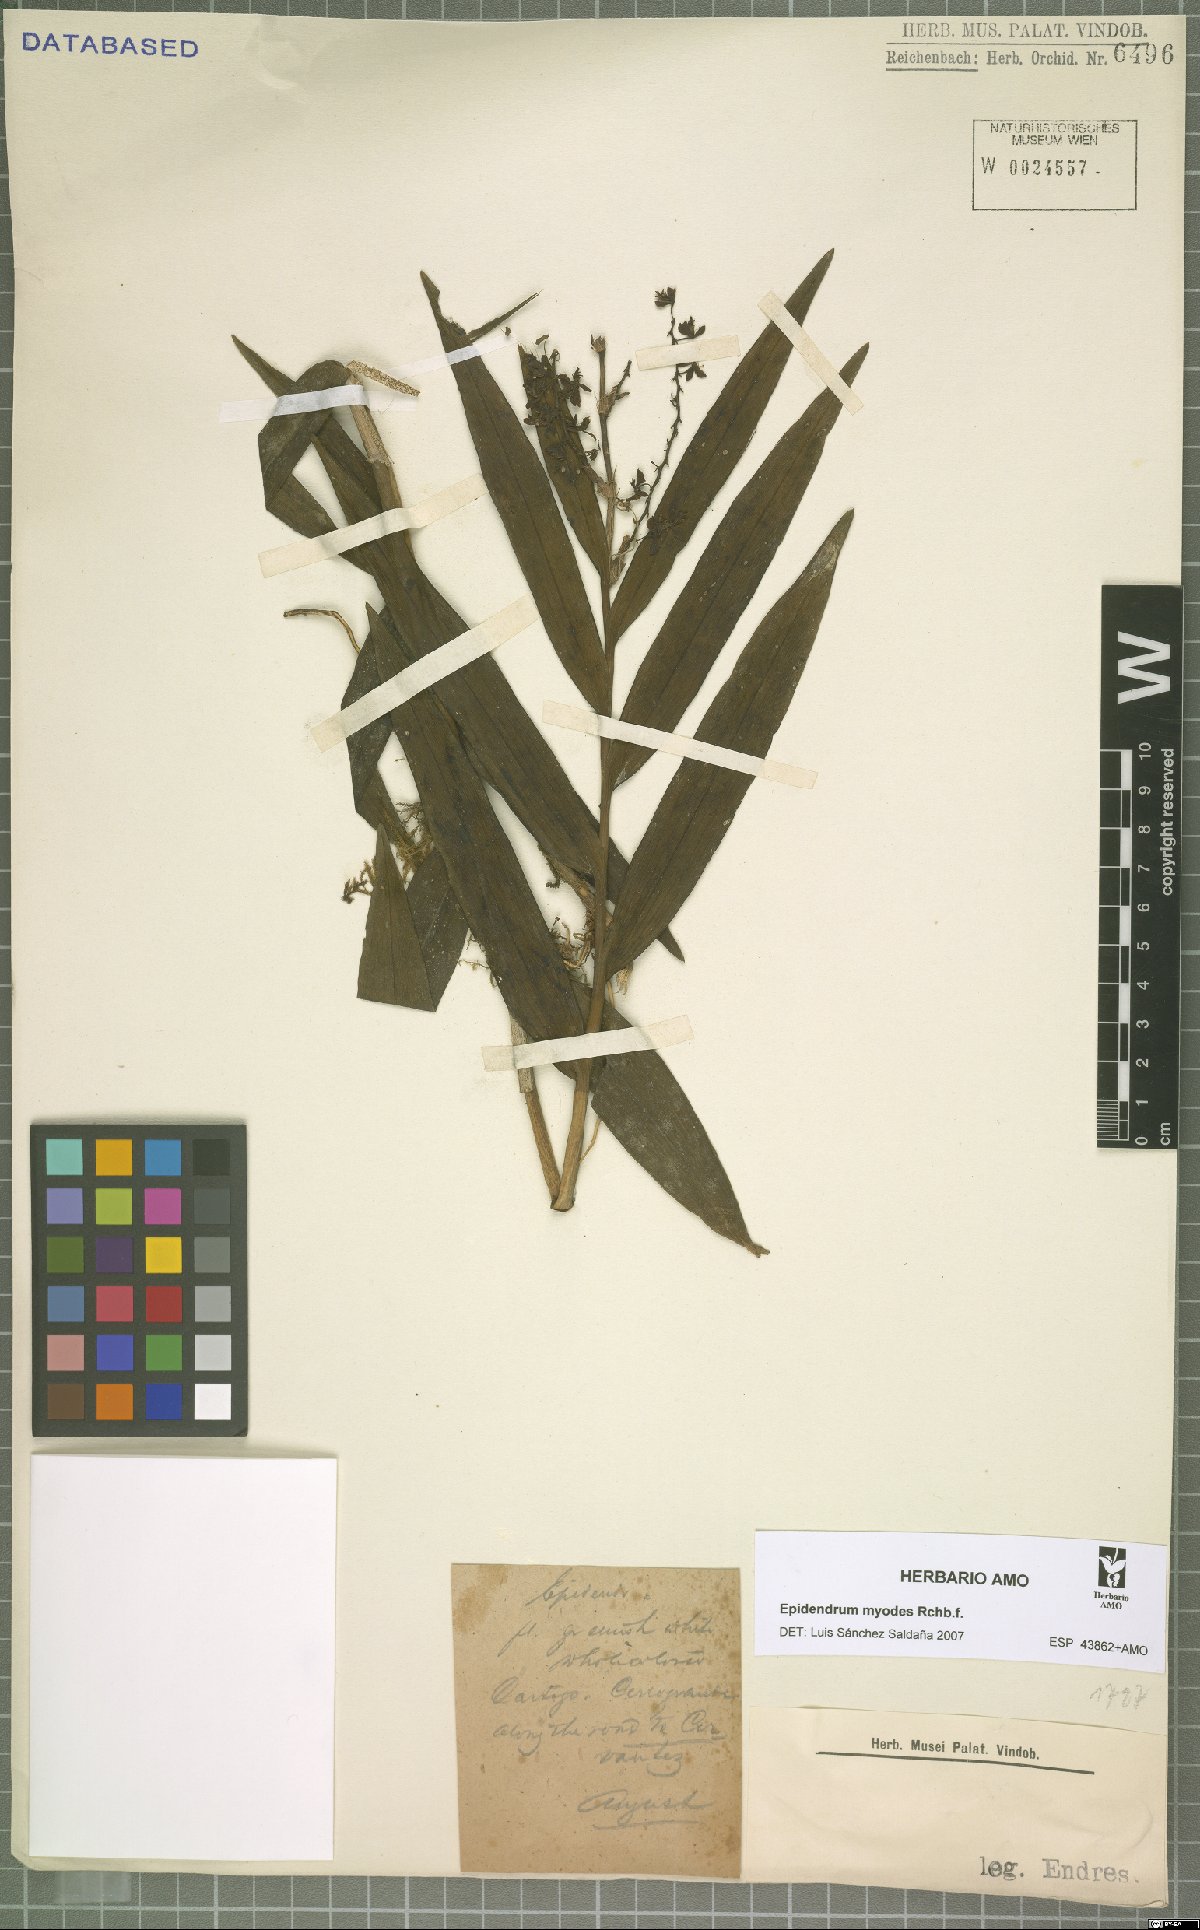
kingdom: Plantae
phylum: Tracheophyta
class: Liliopsida
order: Asparagales
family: Orchidaceae
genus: Epidendrum
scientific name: Epidendrum myodes
